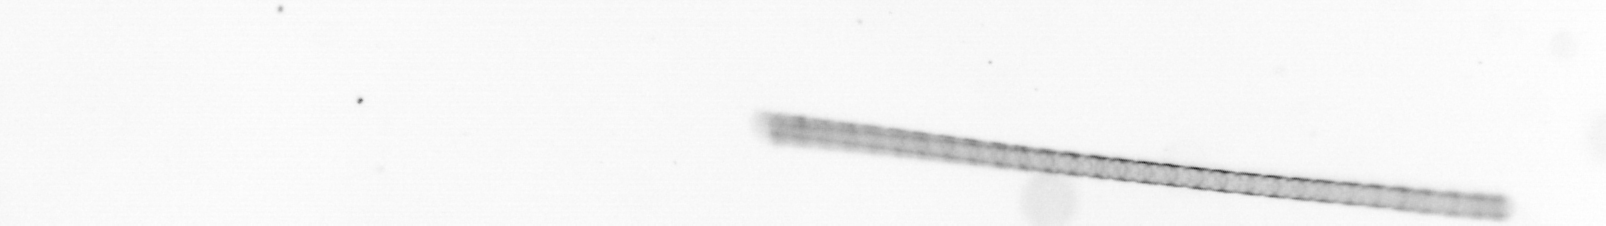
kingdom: Chromista
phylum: Ochrophyta
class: Bacillariophyceae
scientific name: Bacillariophyceae
